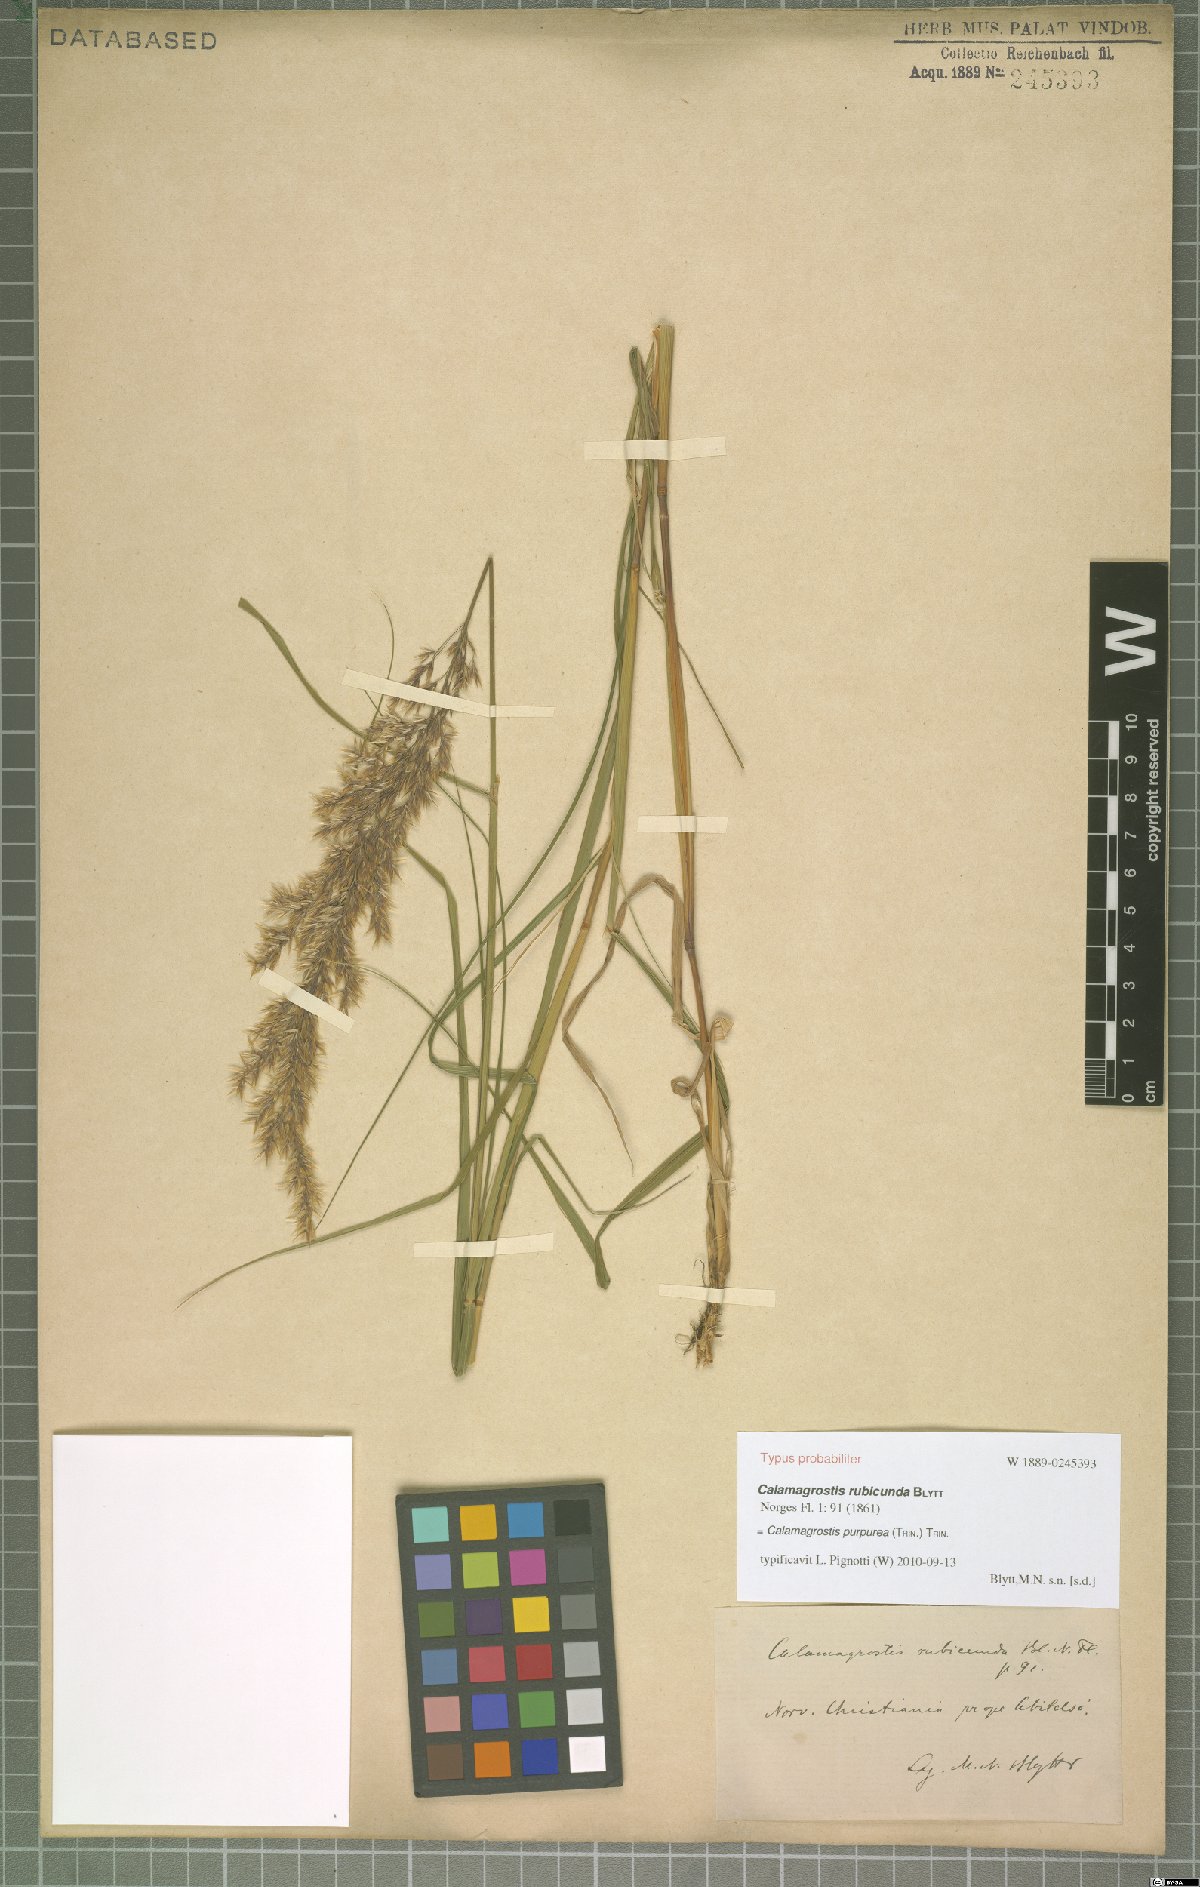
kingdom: Plantae
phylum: Tracheophyta
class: Liliopsida
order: Poales
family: Poaceae
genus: Calamagrostis
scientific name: Calamagrostis purpurea
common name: Scandinavian small-reed
